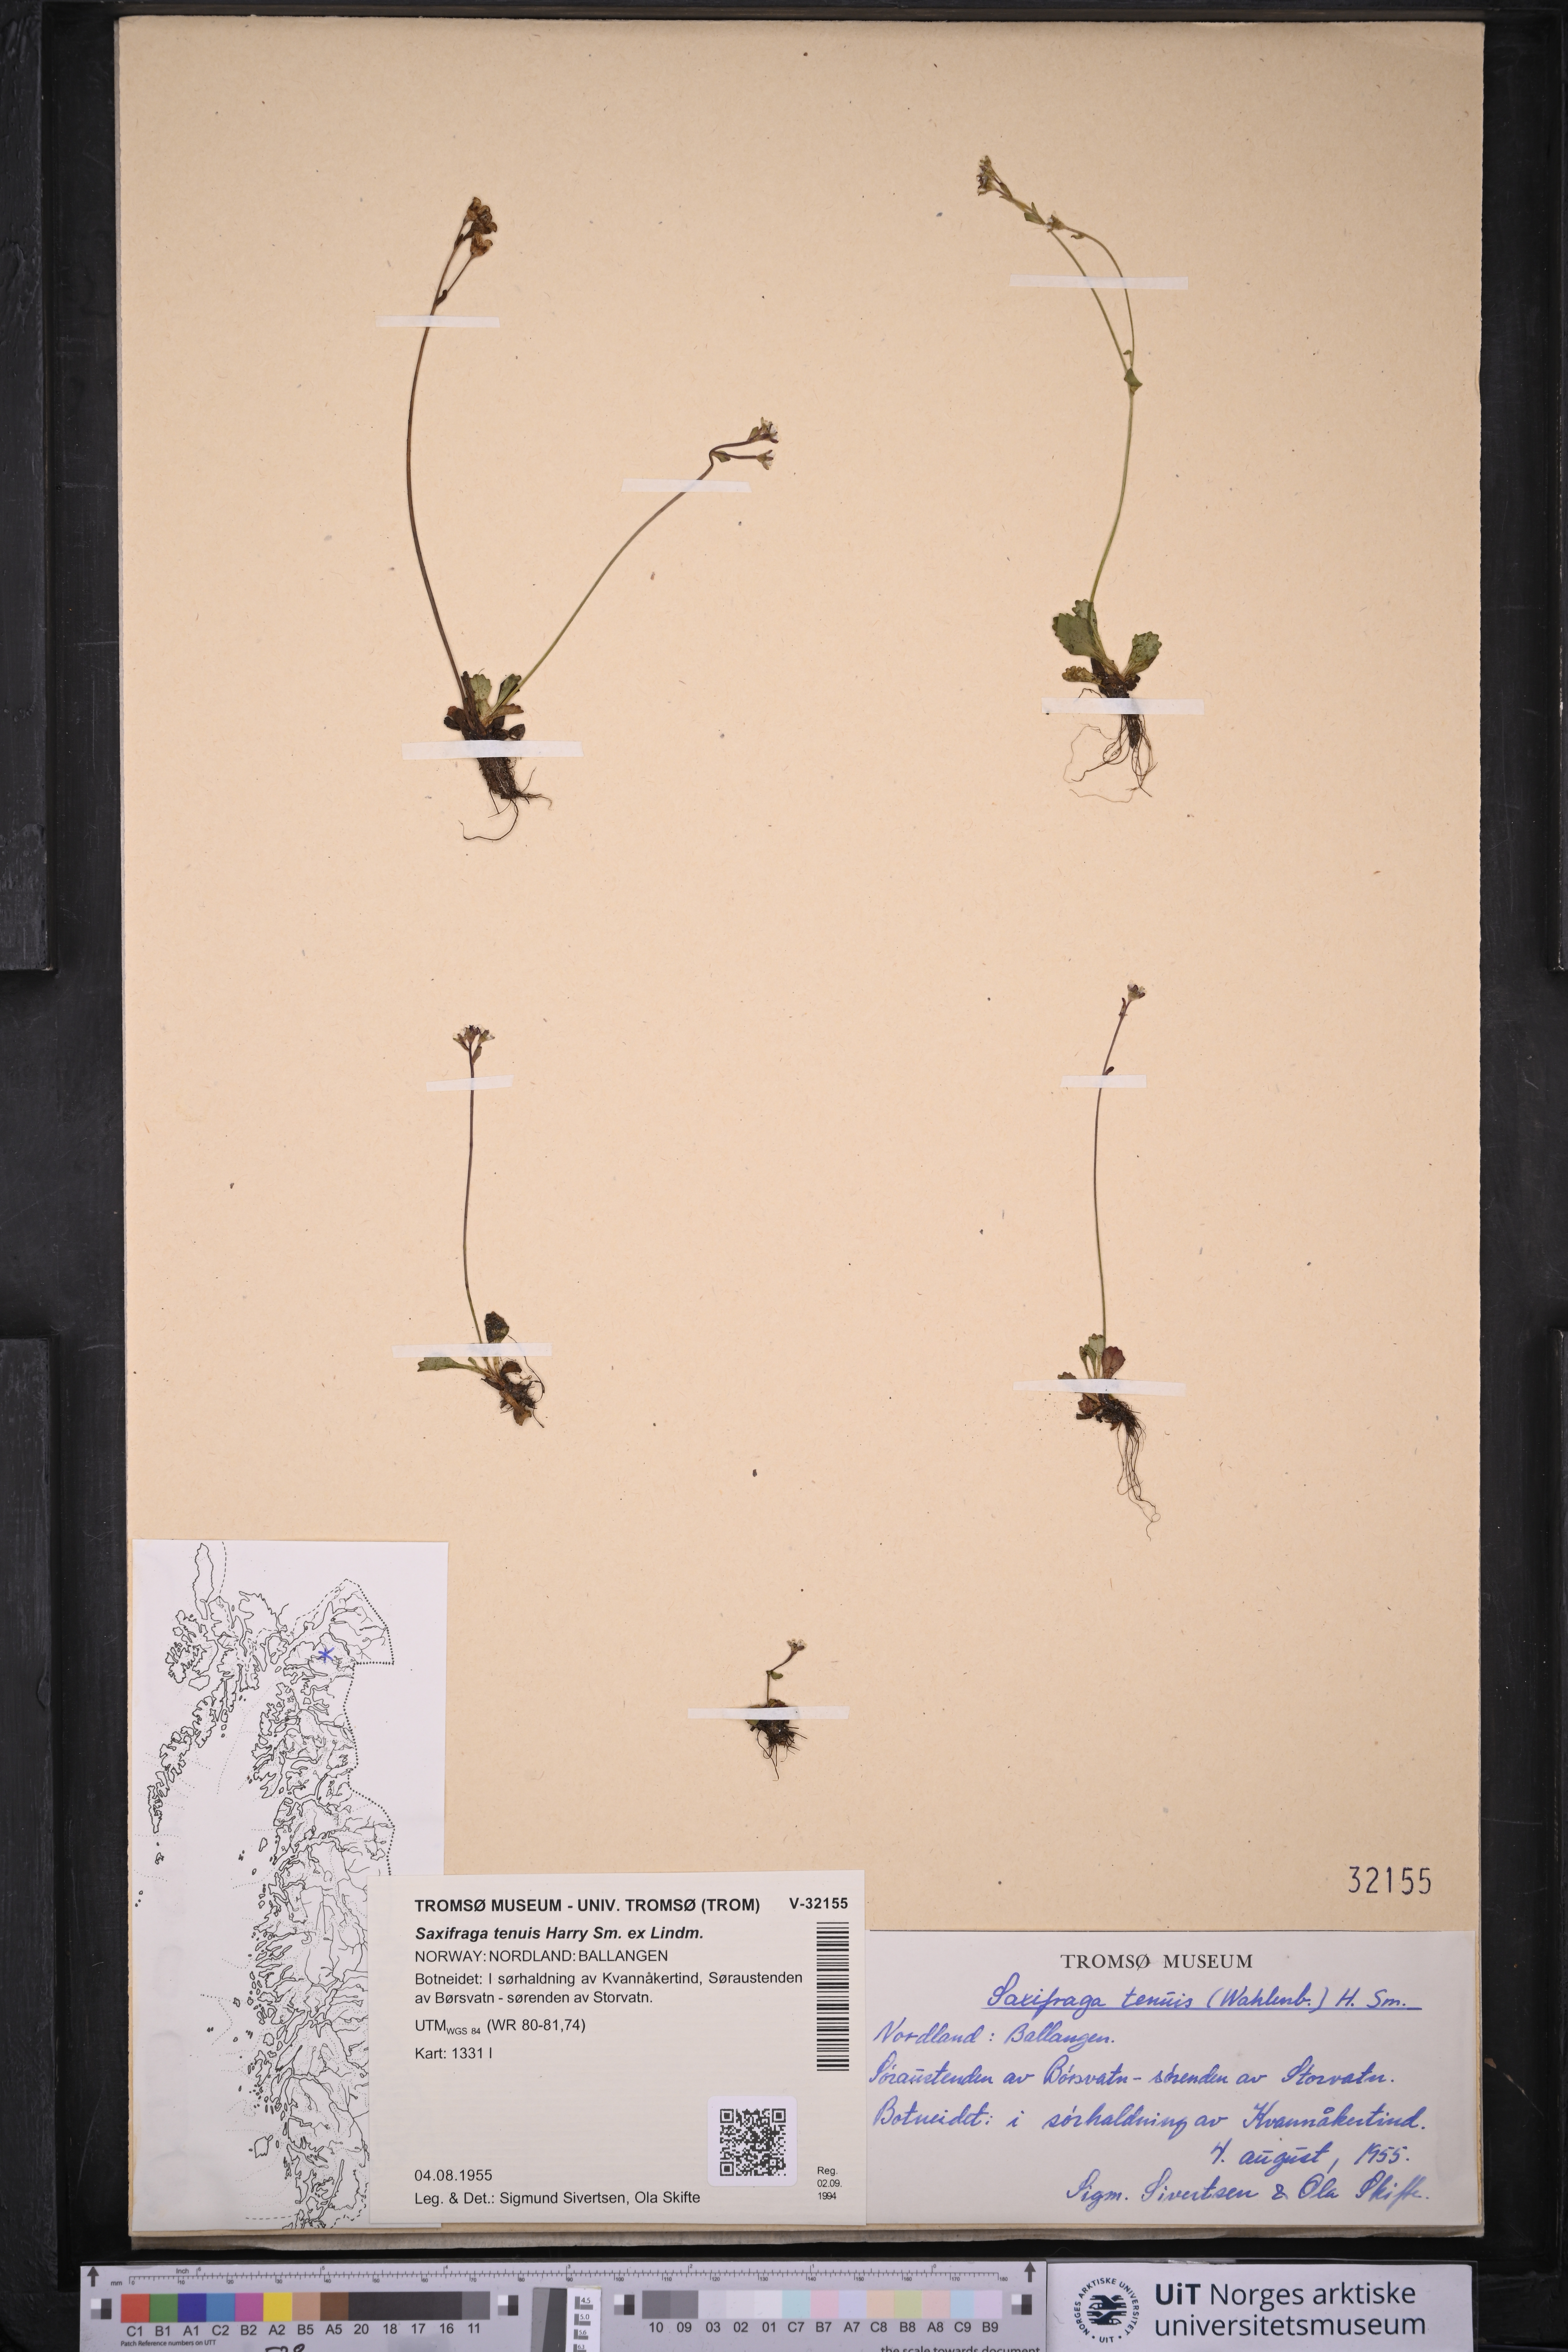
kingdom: Plantae
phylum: Tracheophyta
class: Magnoliopsida
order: Saxifragales
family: Saxifragaceae
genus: Micranthes
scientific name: Micranthes tenuis
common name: Ottertail pass saxifrage
